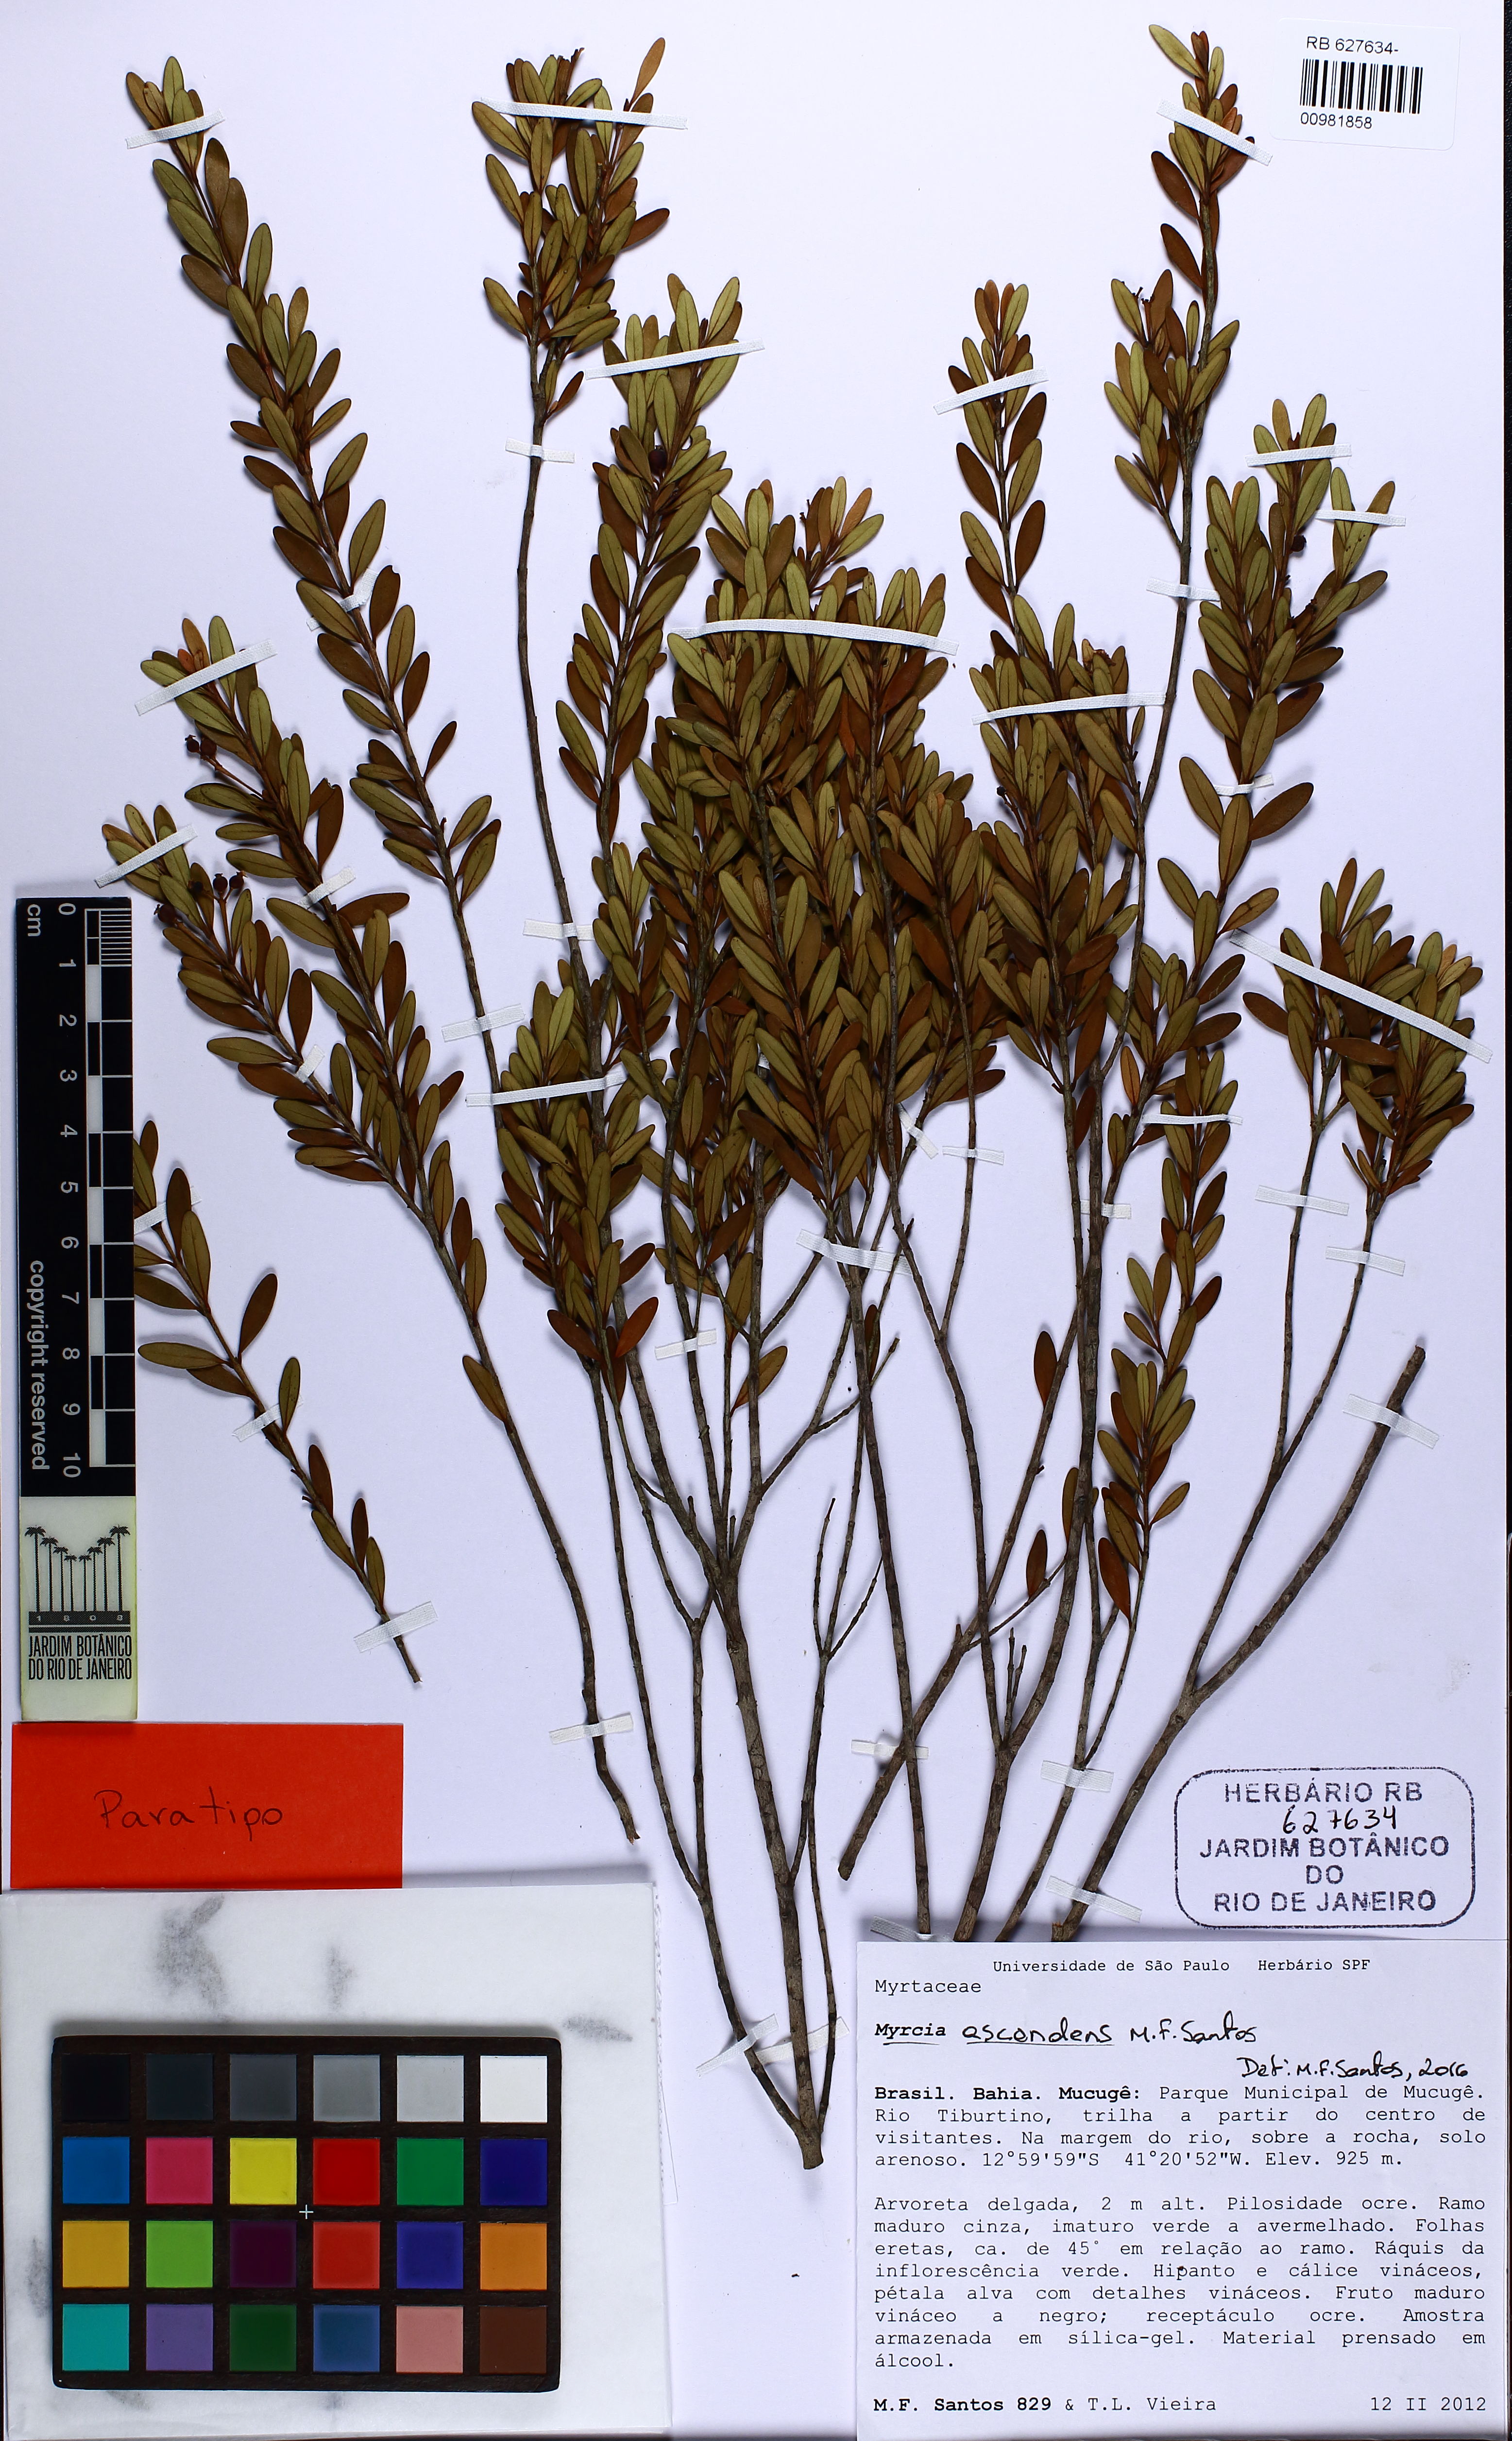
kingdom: Plantae
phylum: Tracheophyta
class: Magnoliopsida
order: Myrtales
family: Myrtaceae
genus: Myrcia
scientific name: Myrcia ascendens
